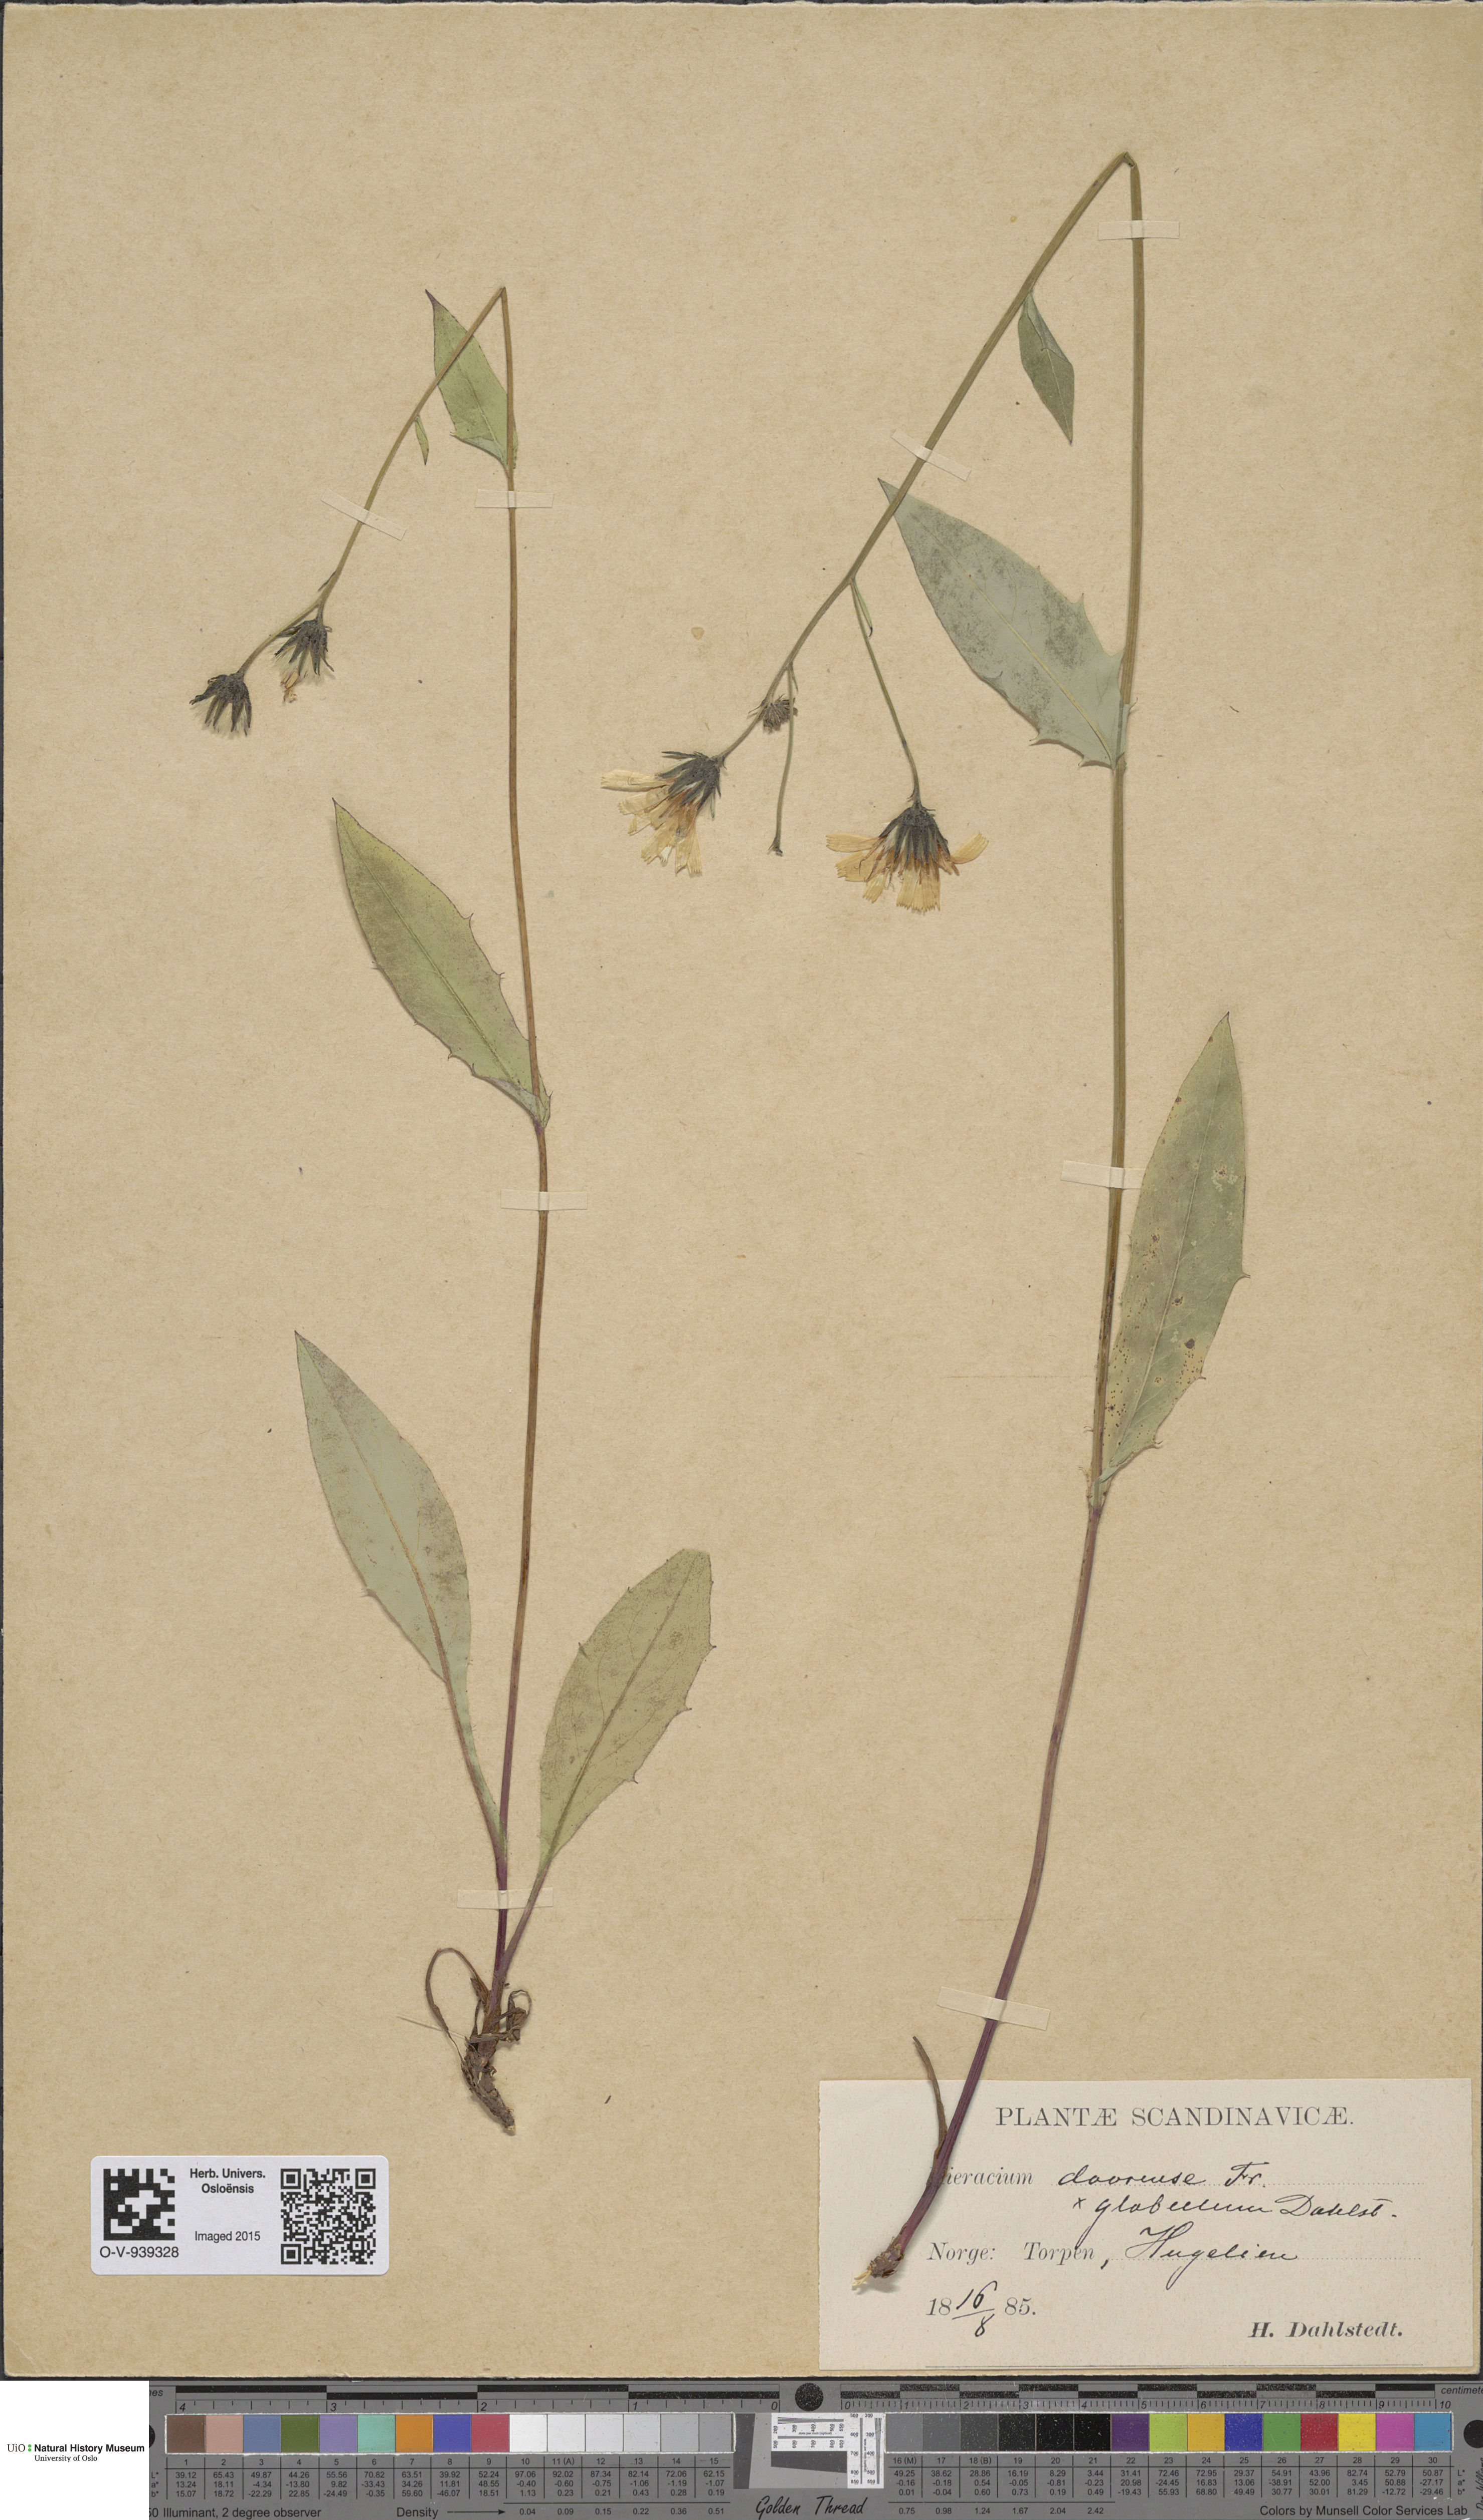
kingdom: Plantae
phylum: Tracheophyta
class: Magnoliopsida
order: Asterales
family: Asteraceae
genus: Hieracium
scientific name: Hieracium dovrense
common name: Dovre hawkweed
